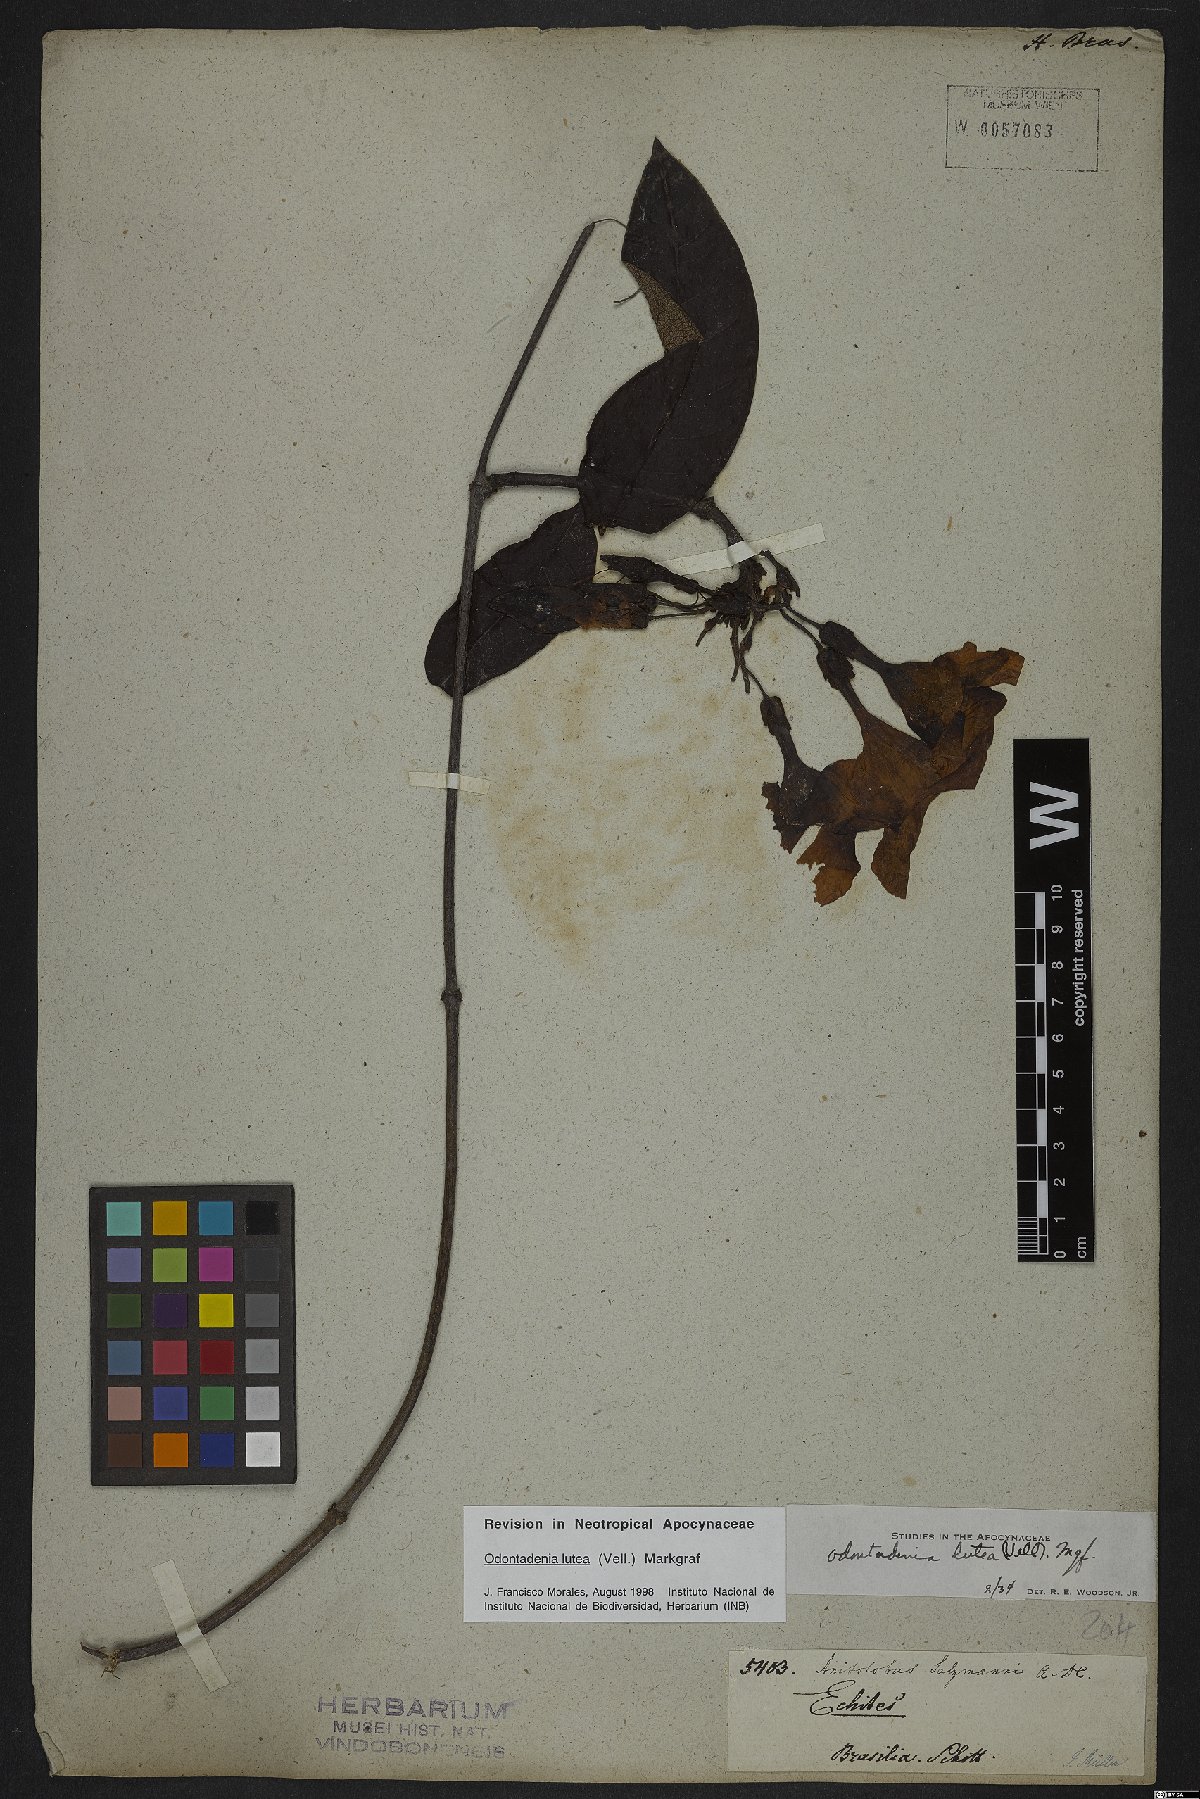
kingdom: Plantae
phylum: Tracheophyta
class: Magnoliopsida
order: Gentianales
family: Apocynaceae
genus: Odontadenia
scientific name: Odontadenia lutea
